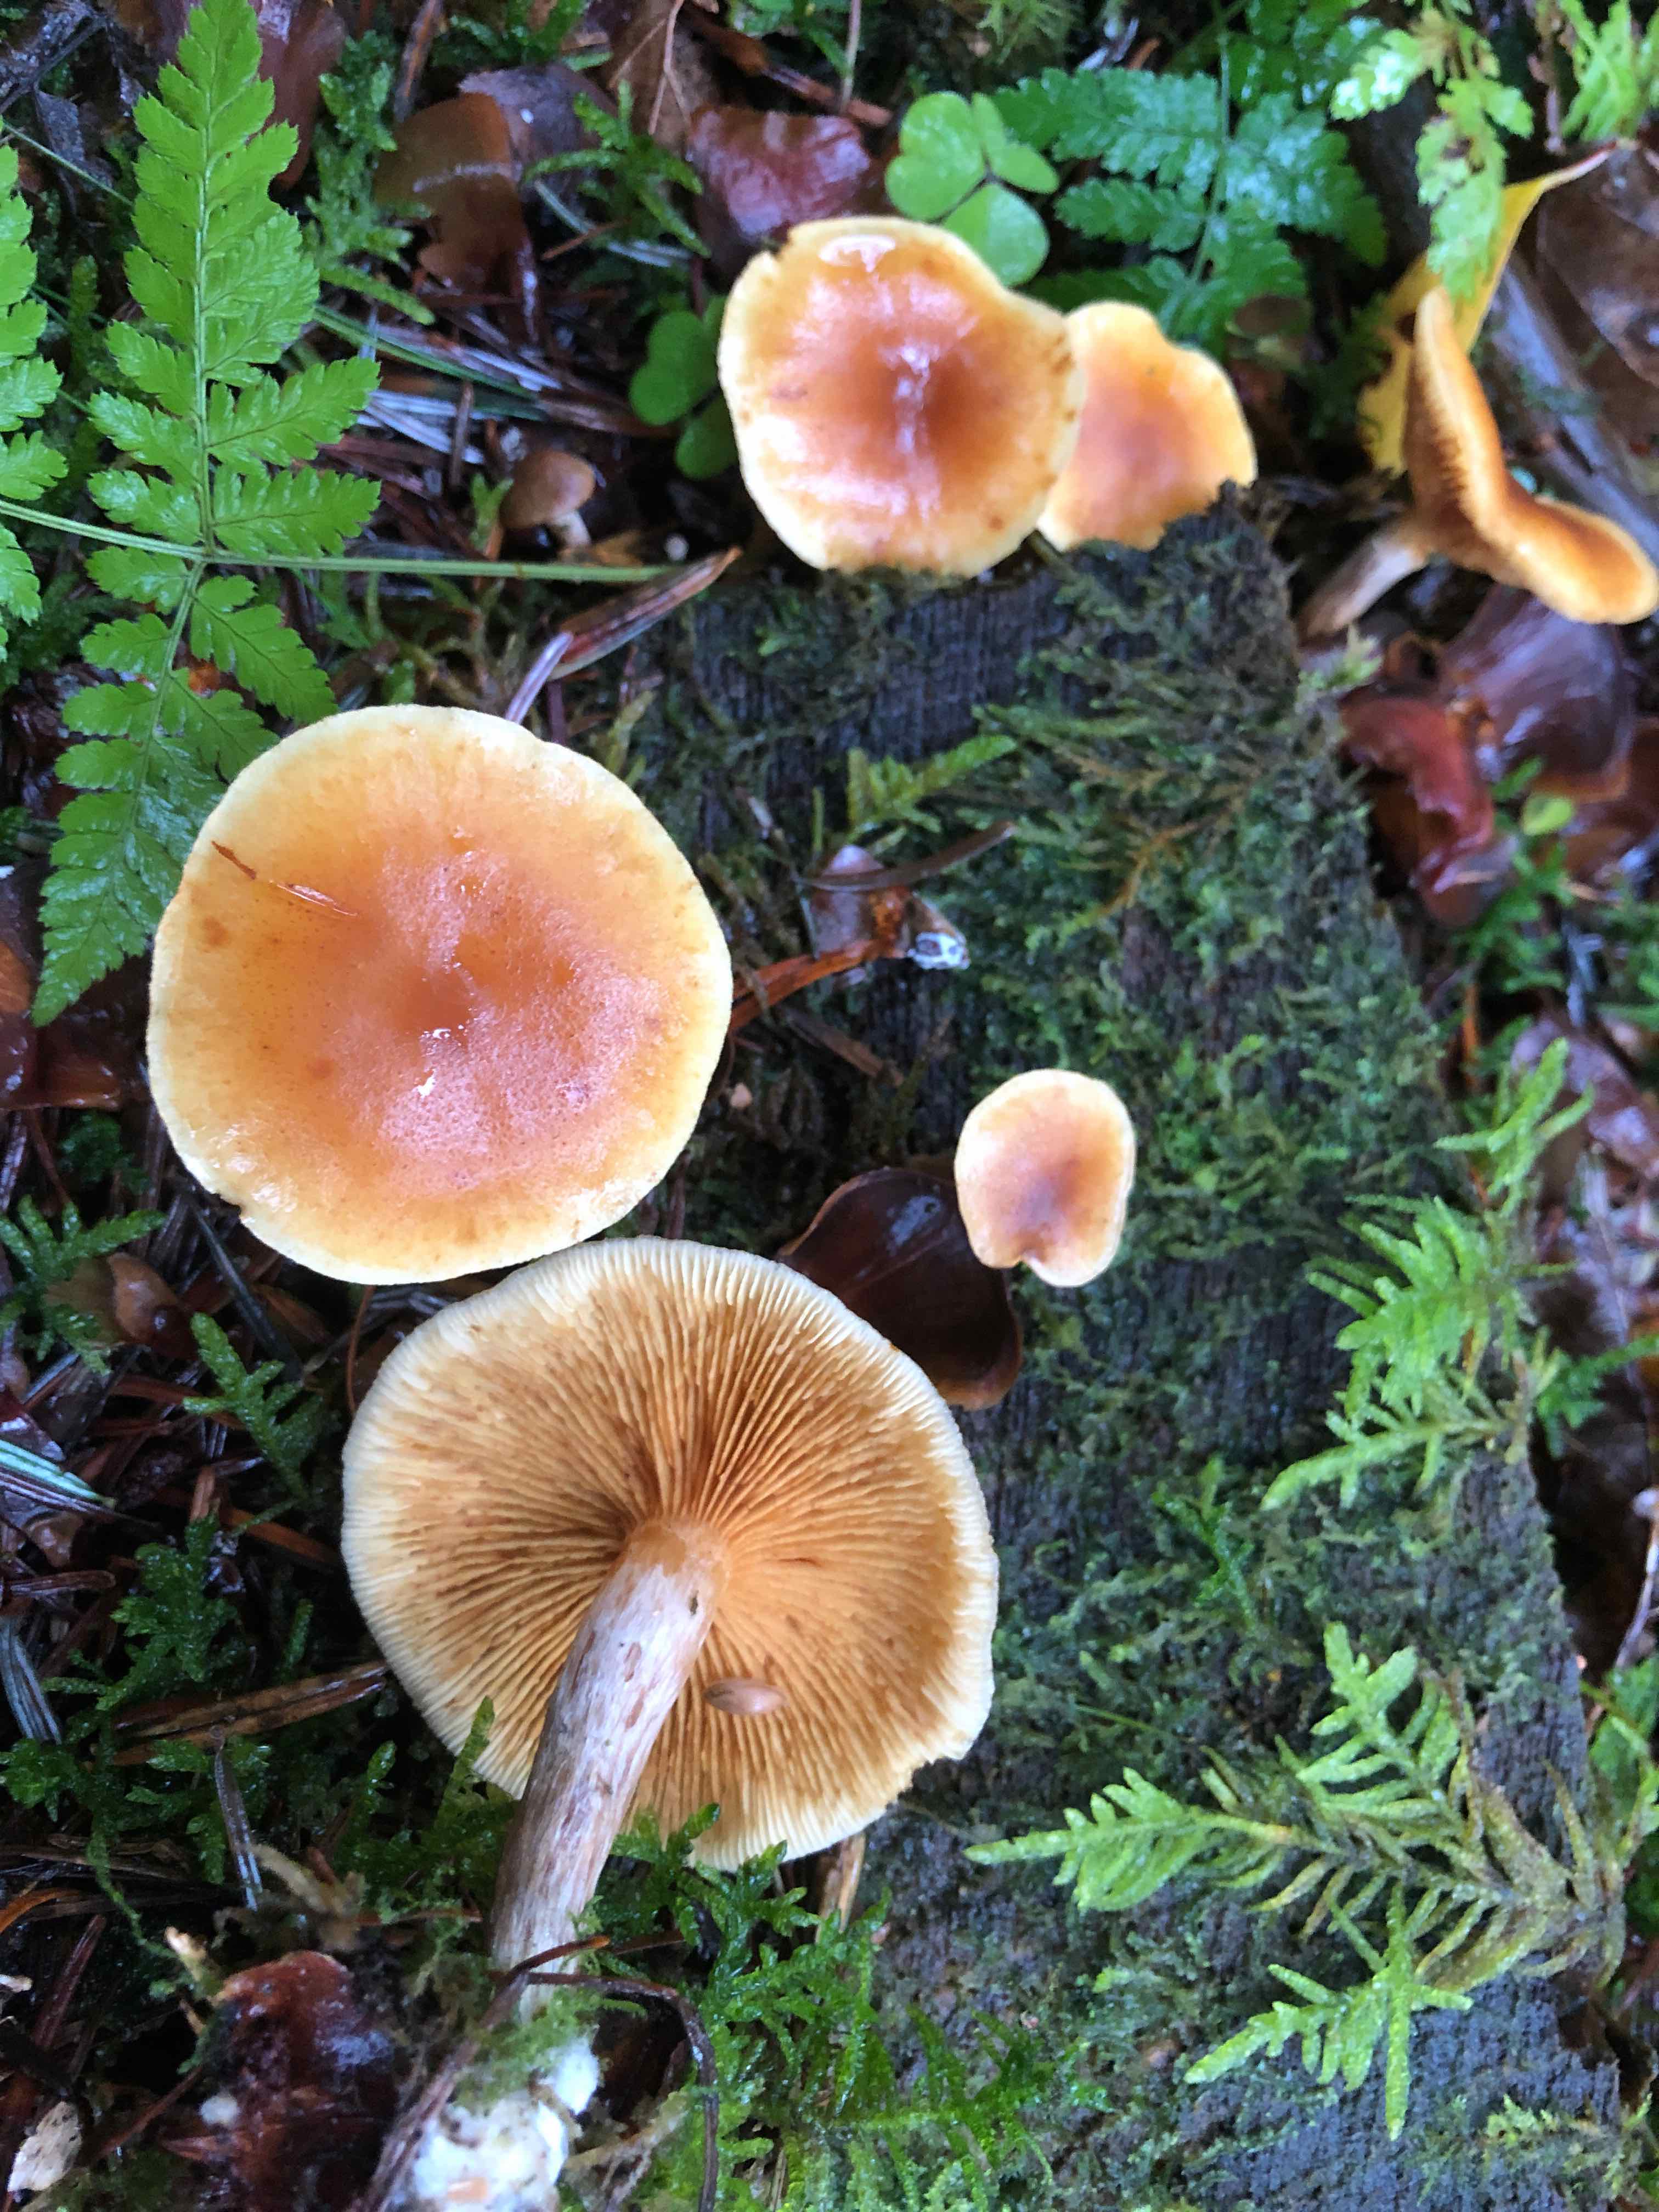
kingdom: Fungi
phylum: Basidiomycota
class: Agaricomycetes
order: Agaricales
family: Hymenogastraceae
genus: Gymnopilus
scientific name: Gymnopilus penetrans
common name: plettet flammehat
